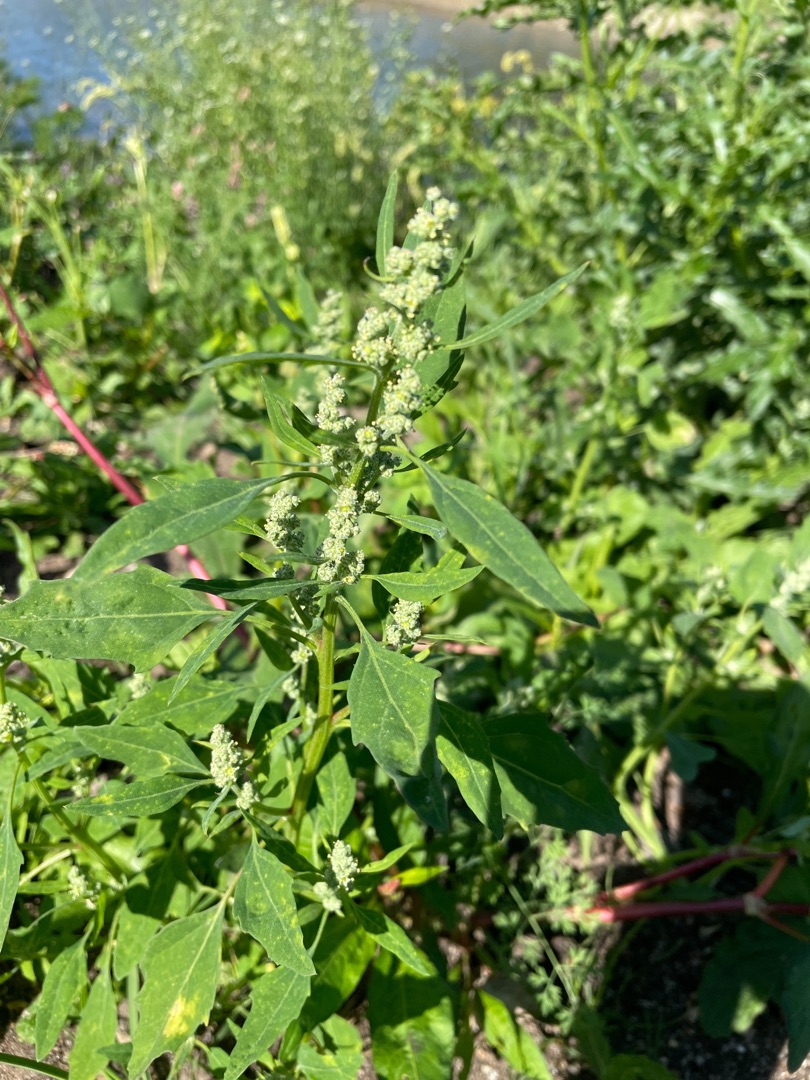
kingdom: Plantae
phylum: Tracheophyta
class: Magnoliopsida
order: Caryophyllales
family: Amaranthaceae
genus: Chenopodium
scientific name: Chenopodium album
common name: Hvidmelet gåsefod
